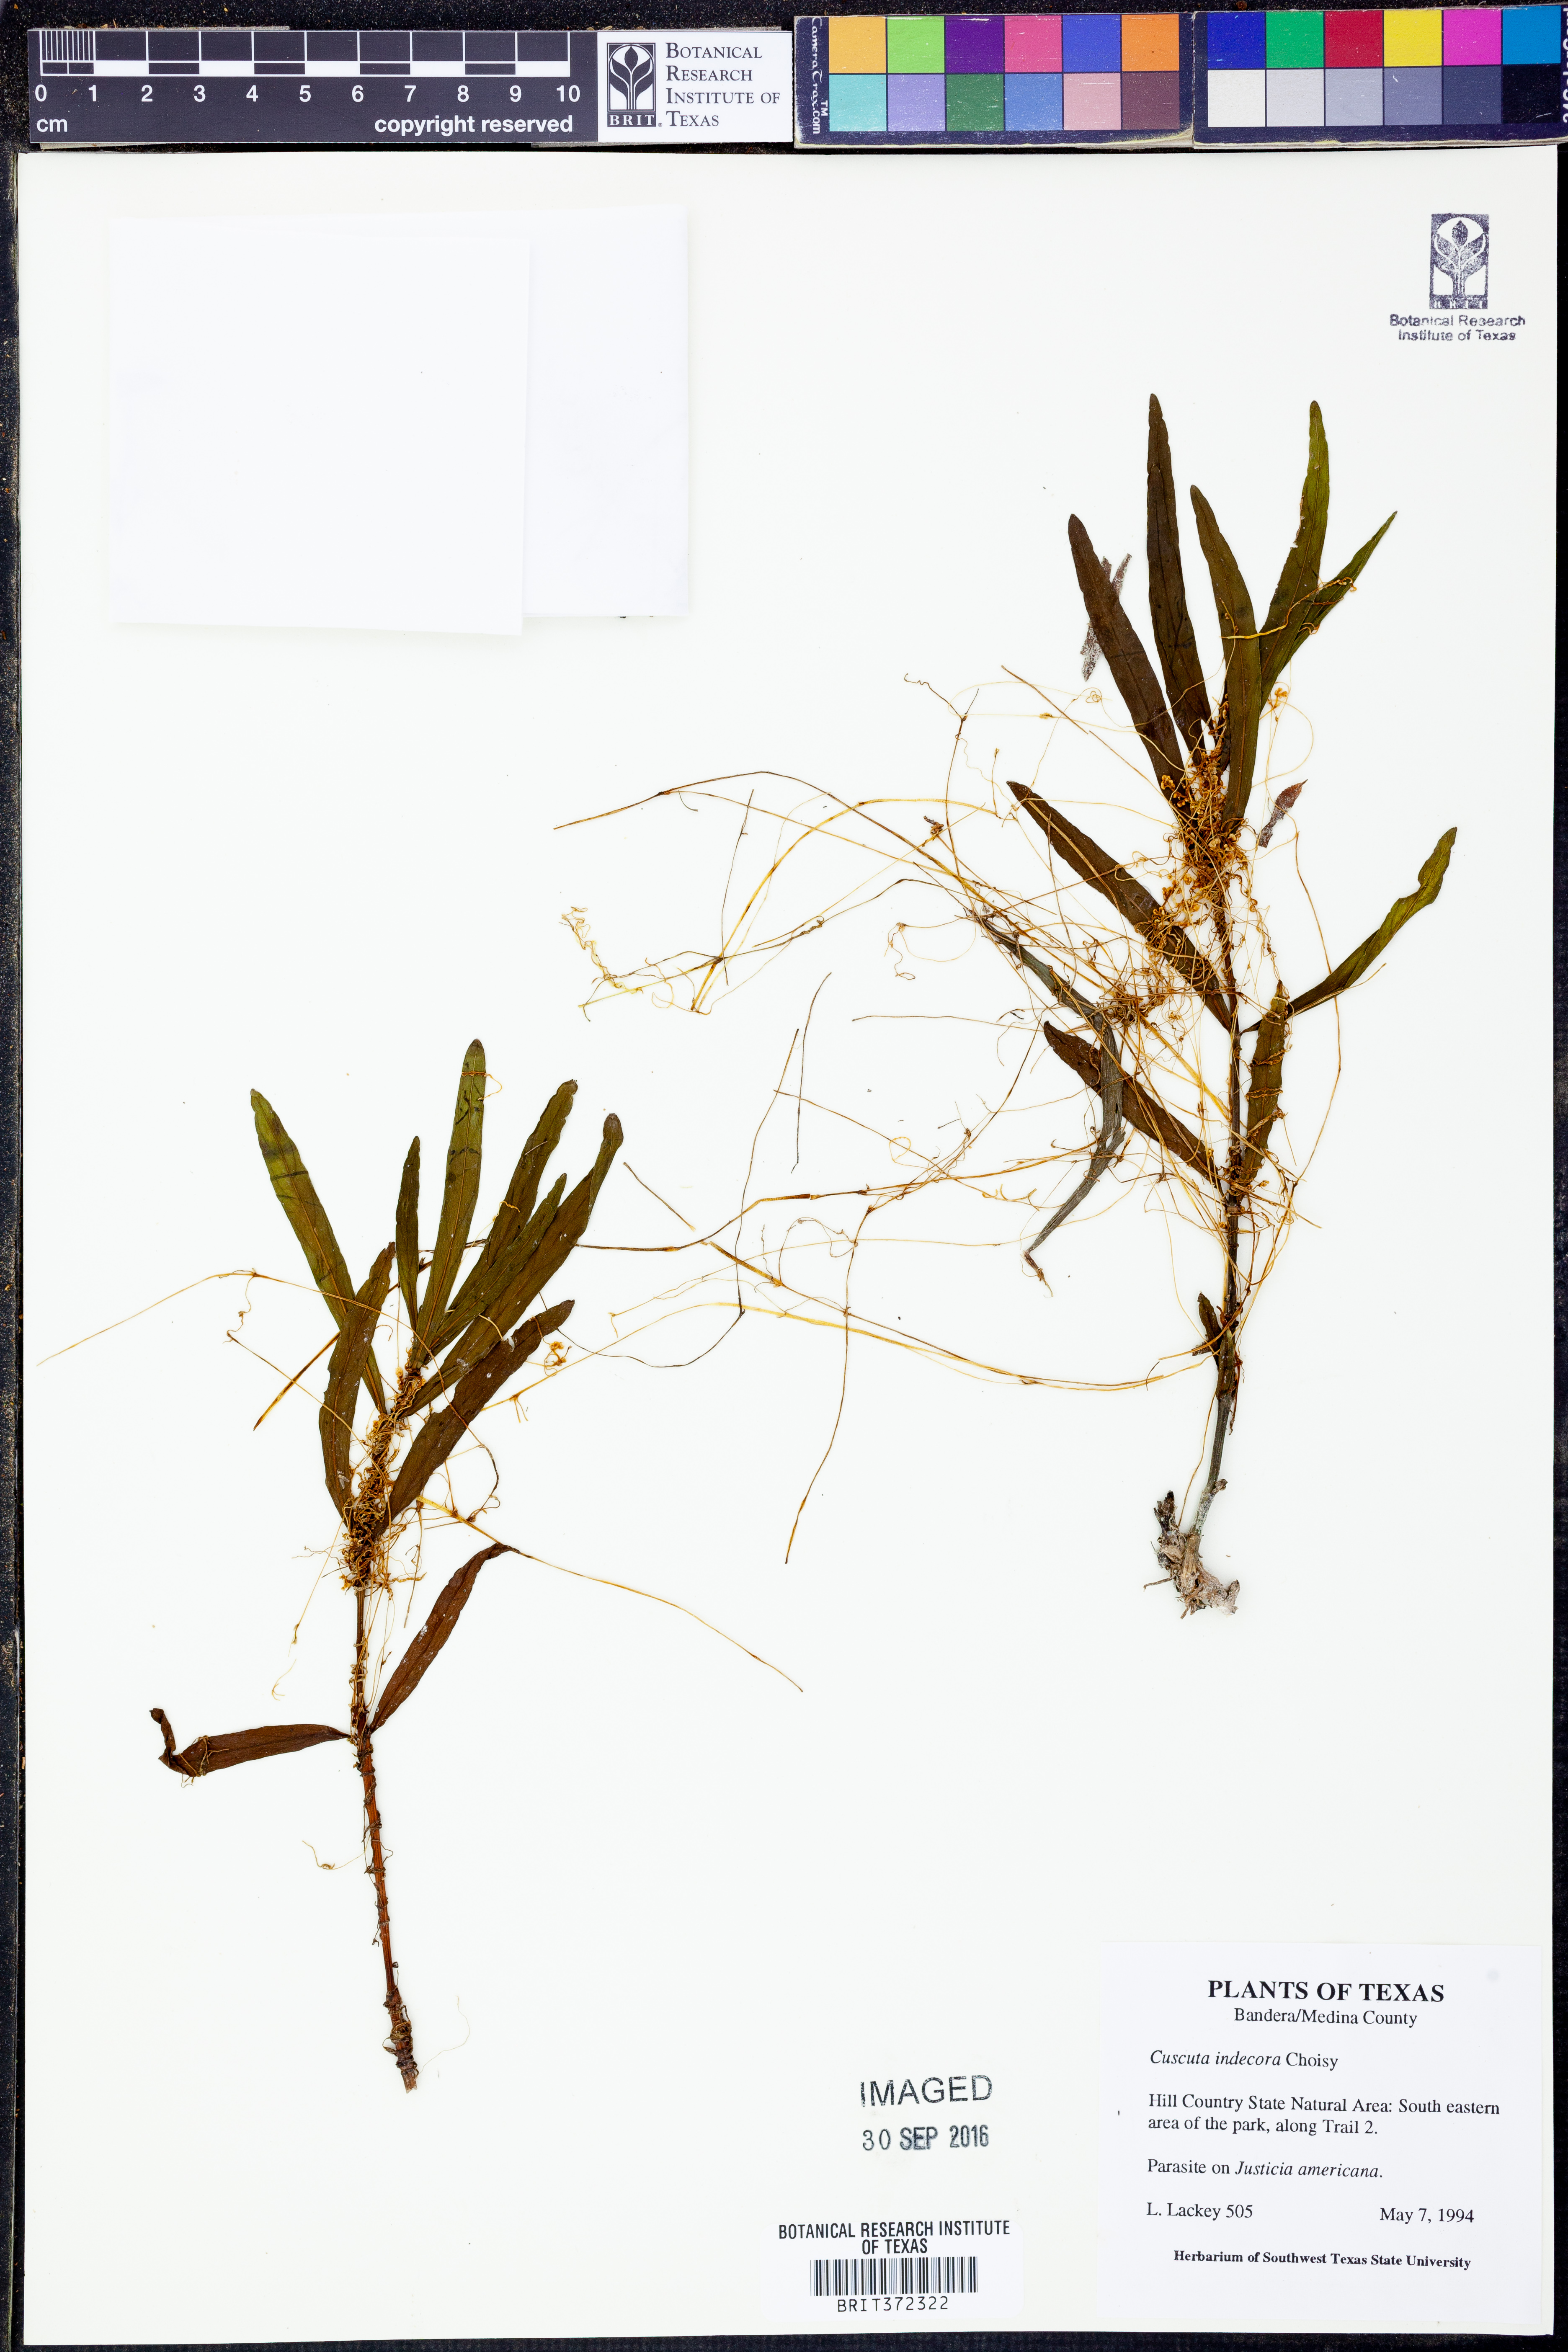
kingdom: Plantae
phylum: Tracheophyta
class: Magnoliopsida
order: Solanales
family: Convolvulaceae
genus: Cuscuta
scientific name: Cuscuta indecora
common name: Large-seed dodder
